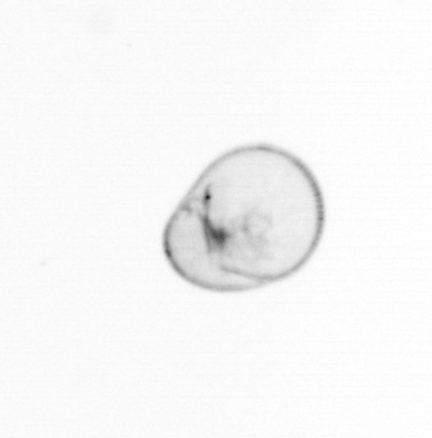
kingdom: Chromista
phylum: Myzozoa
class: Dinophyceae
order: Noctilucales
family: Noctilucaceae
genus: Noctiluca
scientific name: Noctiluca scintillans
